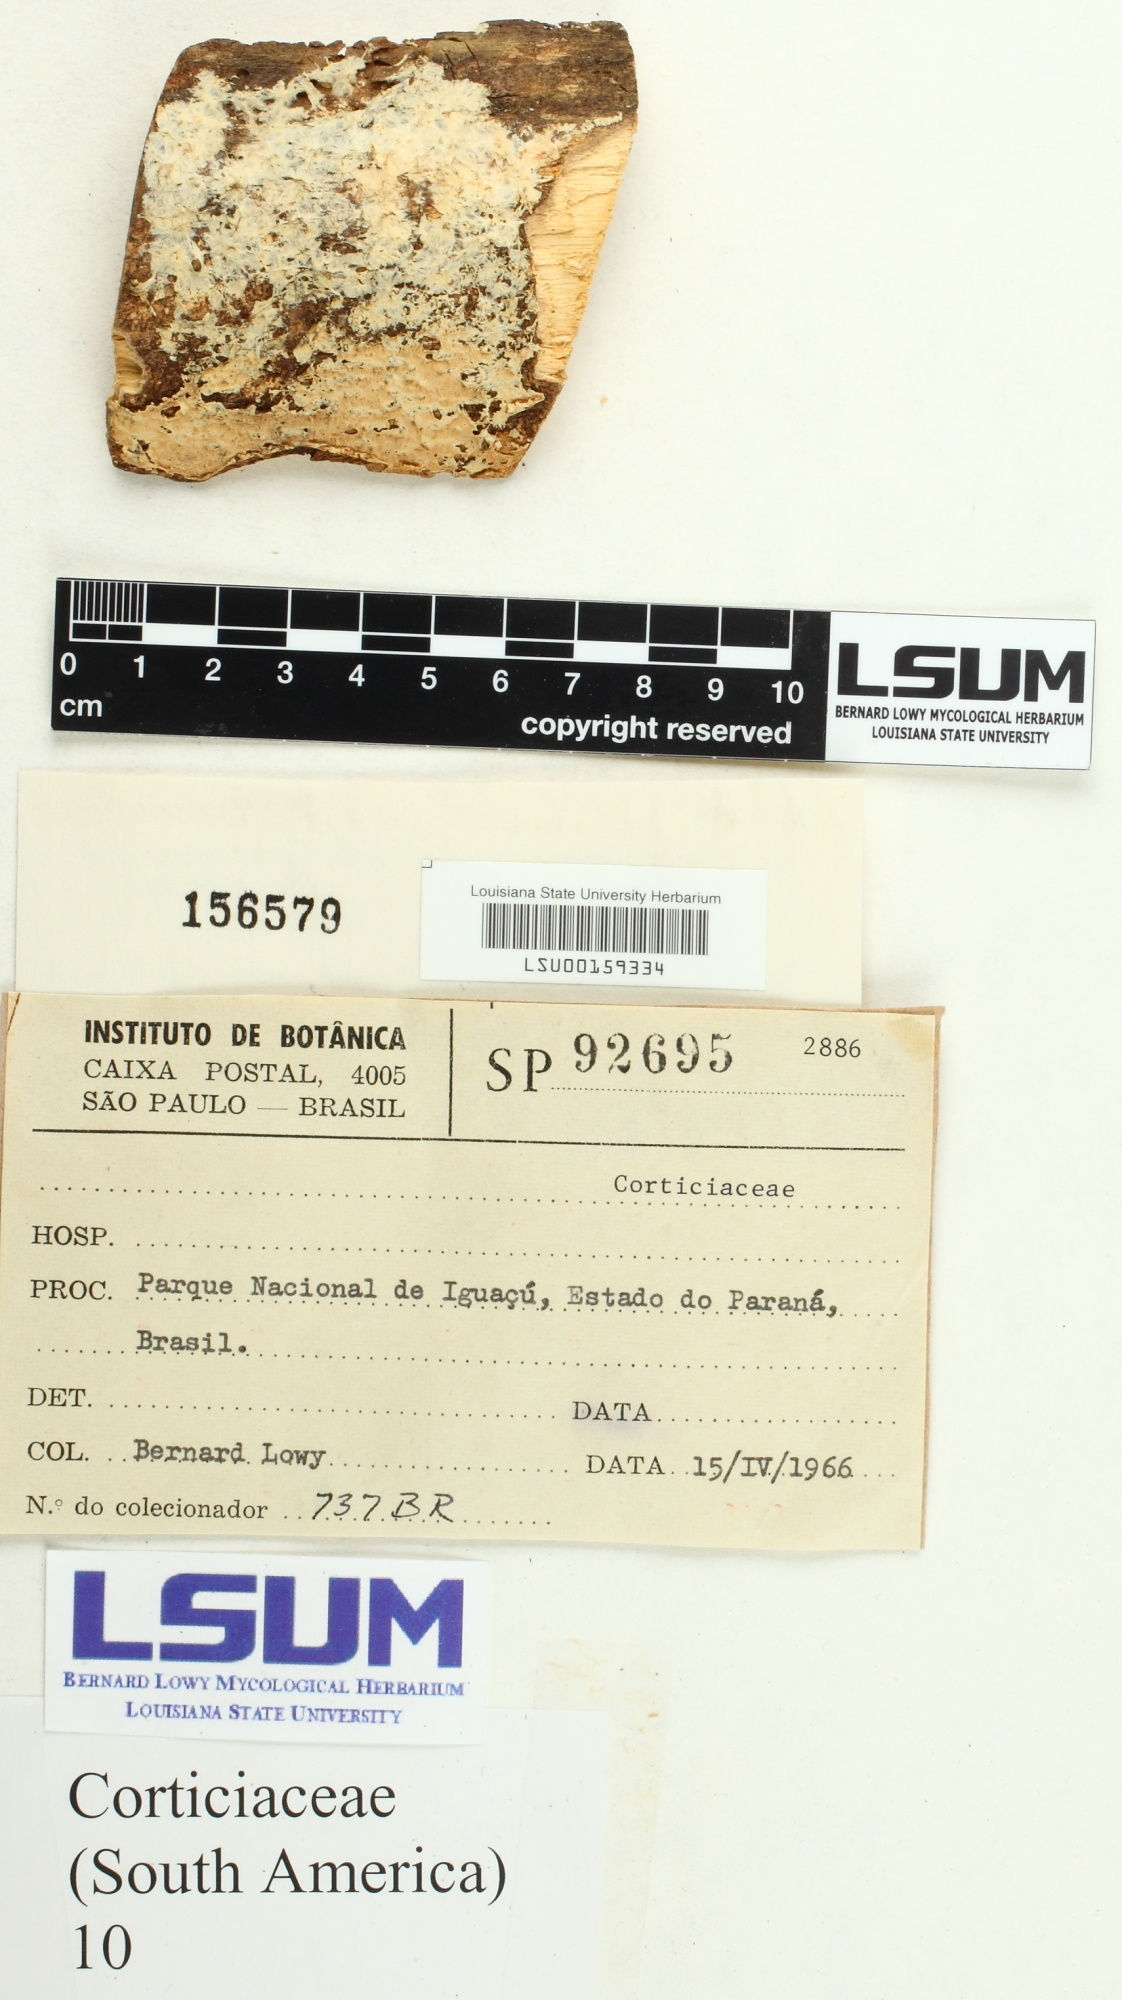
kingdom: Fungi
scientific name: Fungi
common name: Fungi
